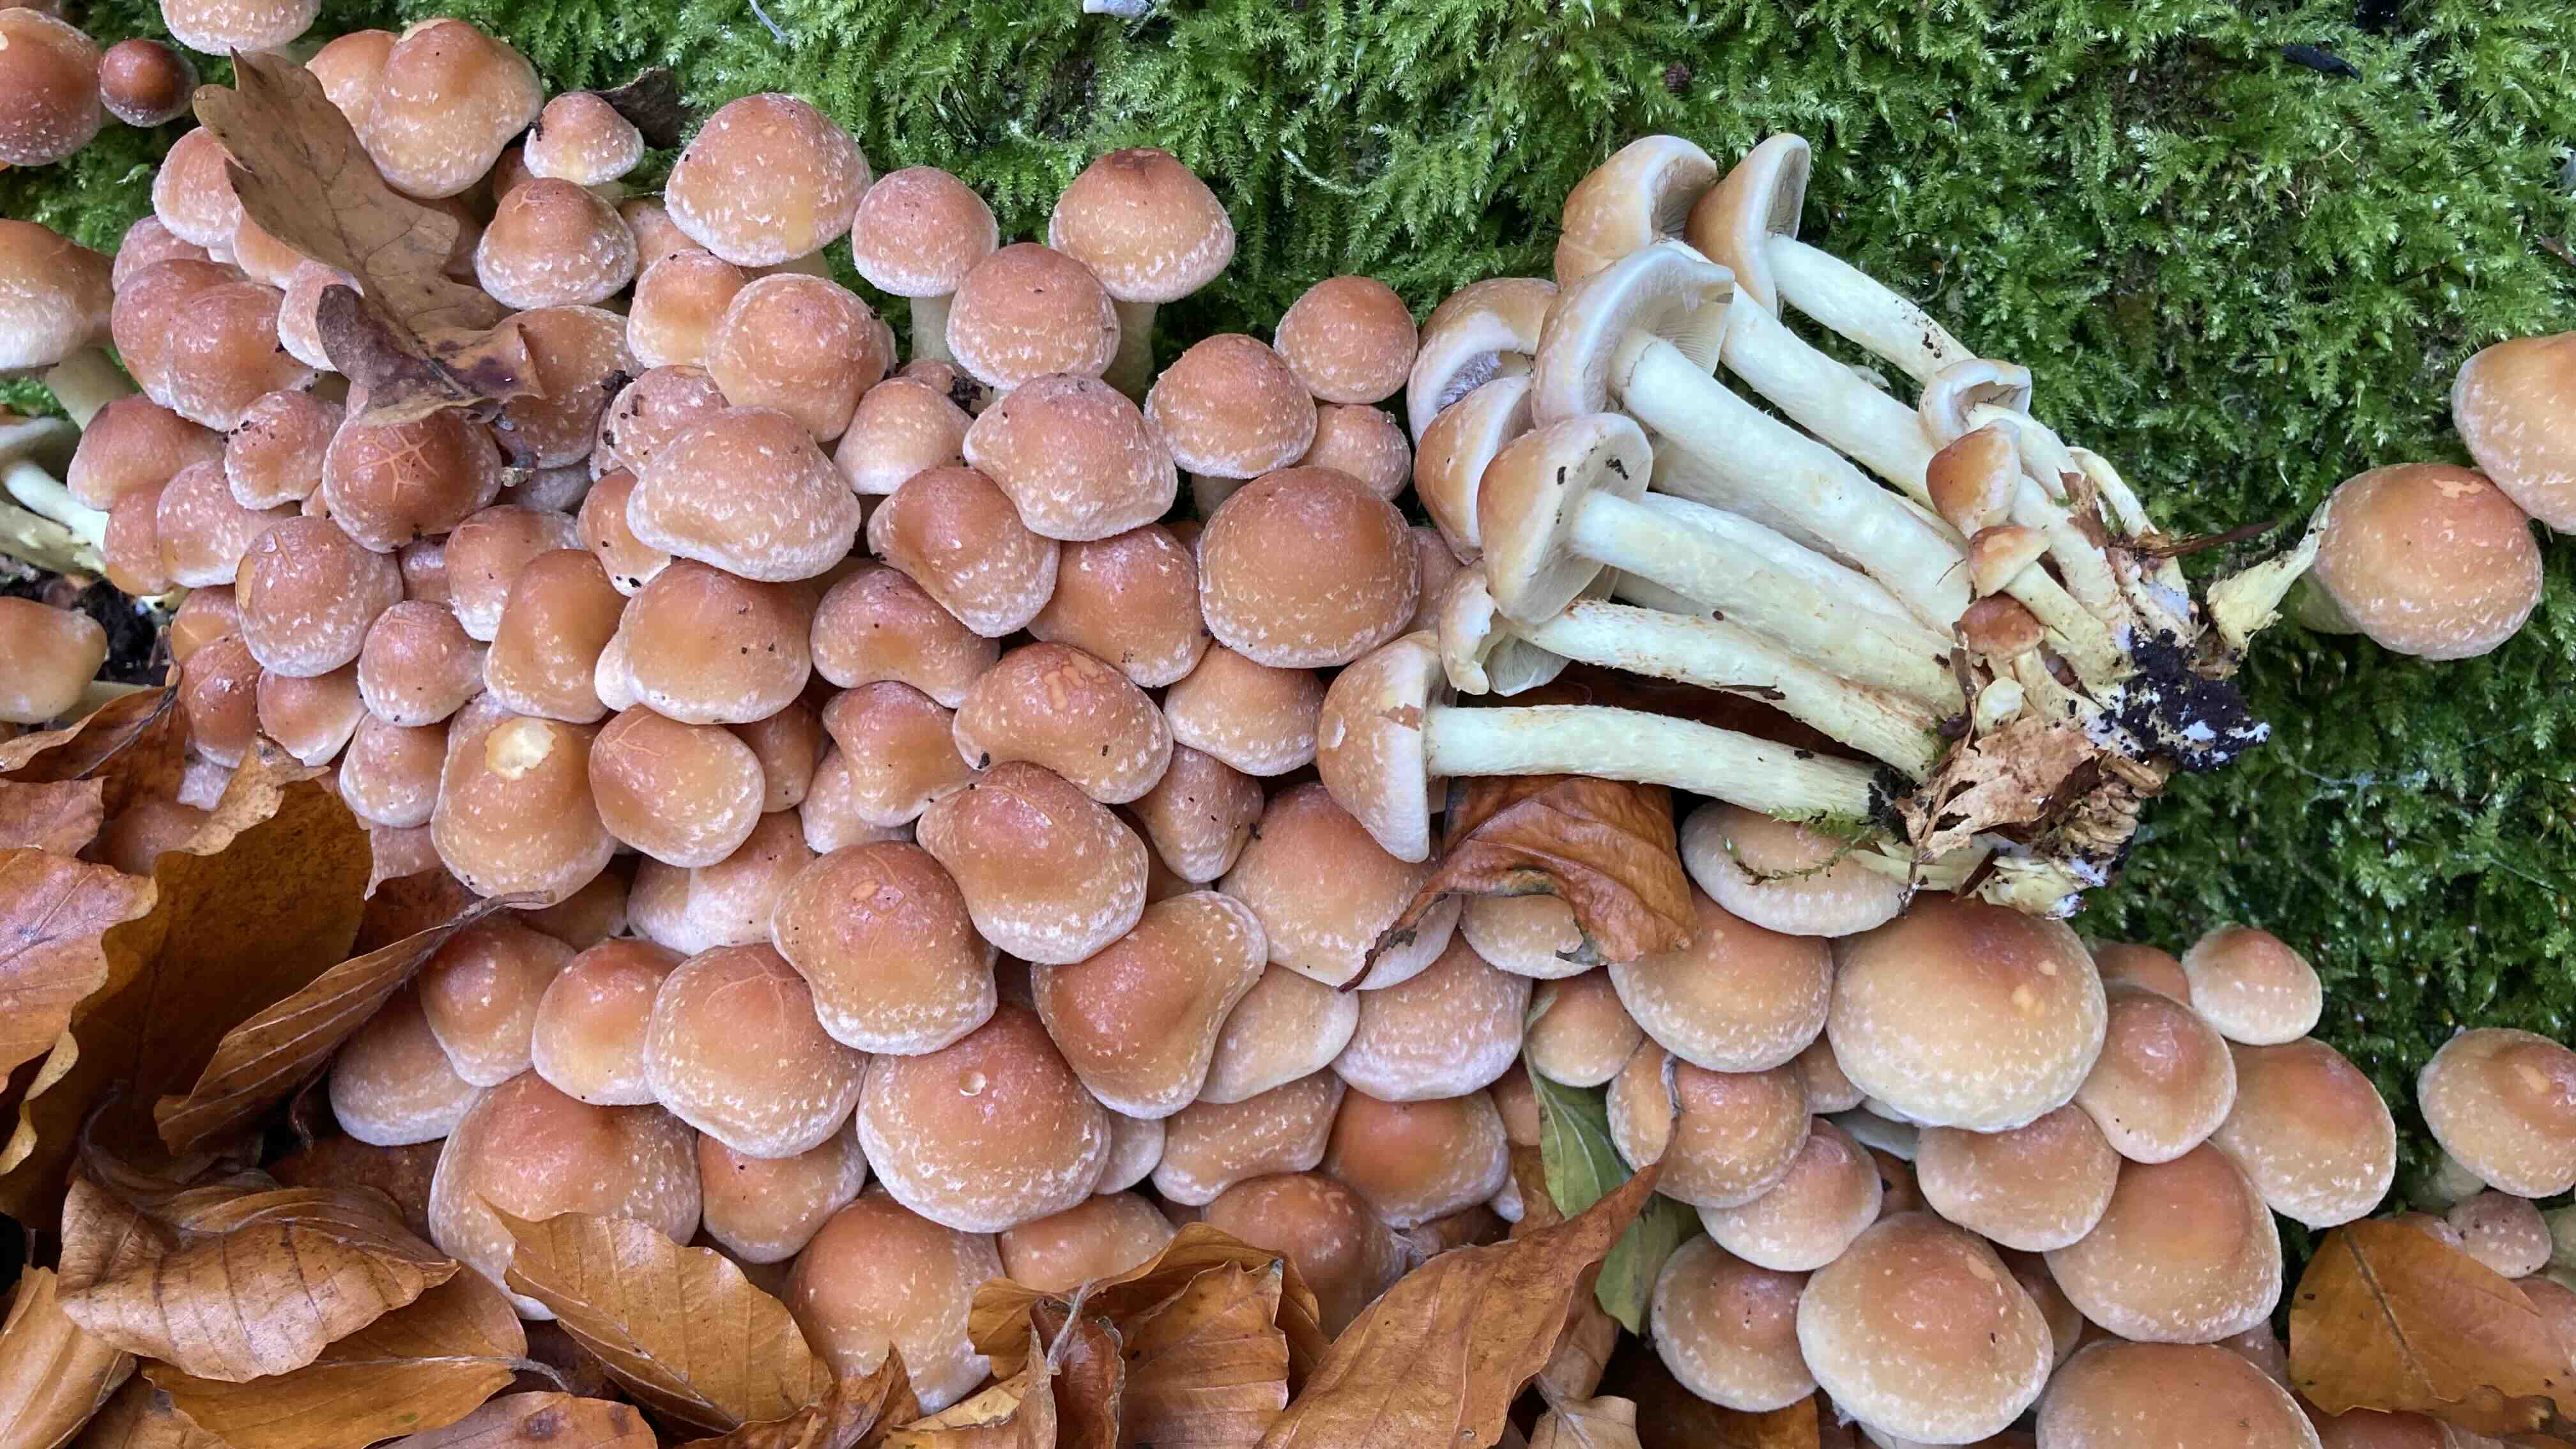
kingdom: Fungi
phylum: Basidiomycota
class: Agaricomycetes
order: Agaricales
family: Strophariaceae
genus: Hypholoma
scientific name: Hypholoma fasciculare
